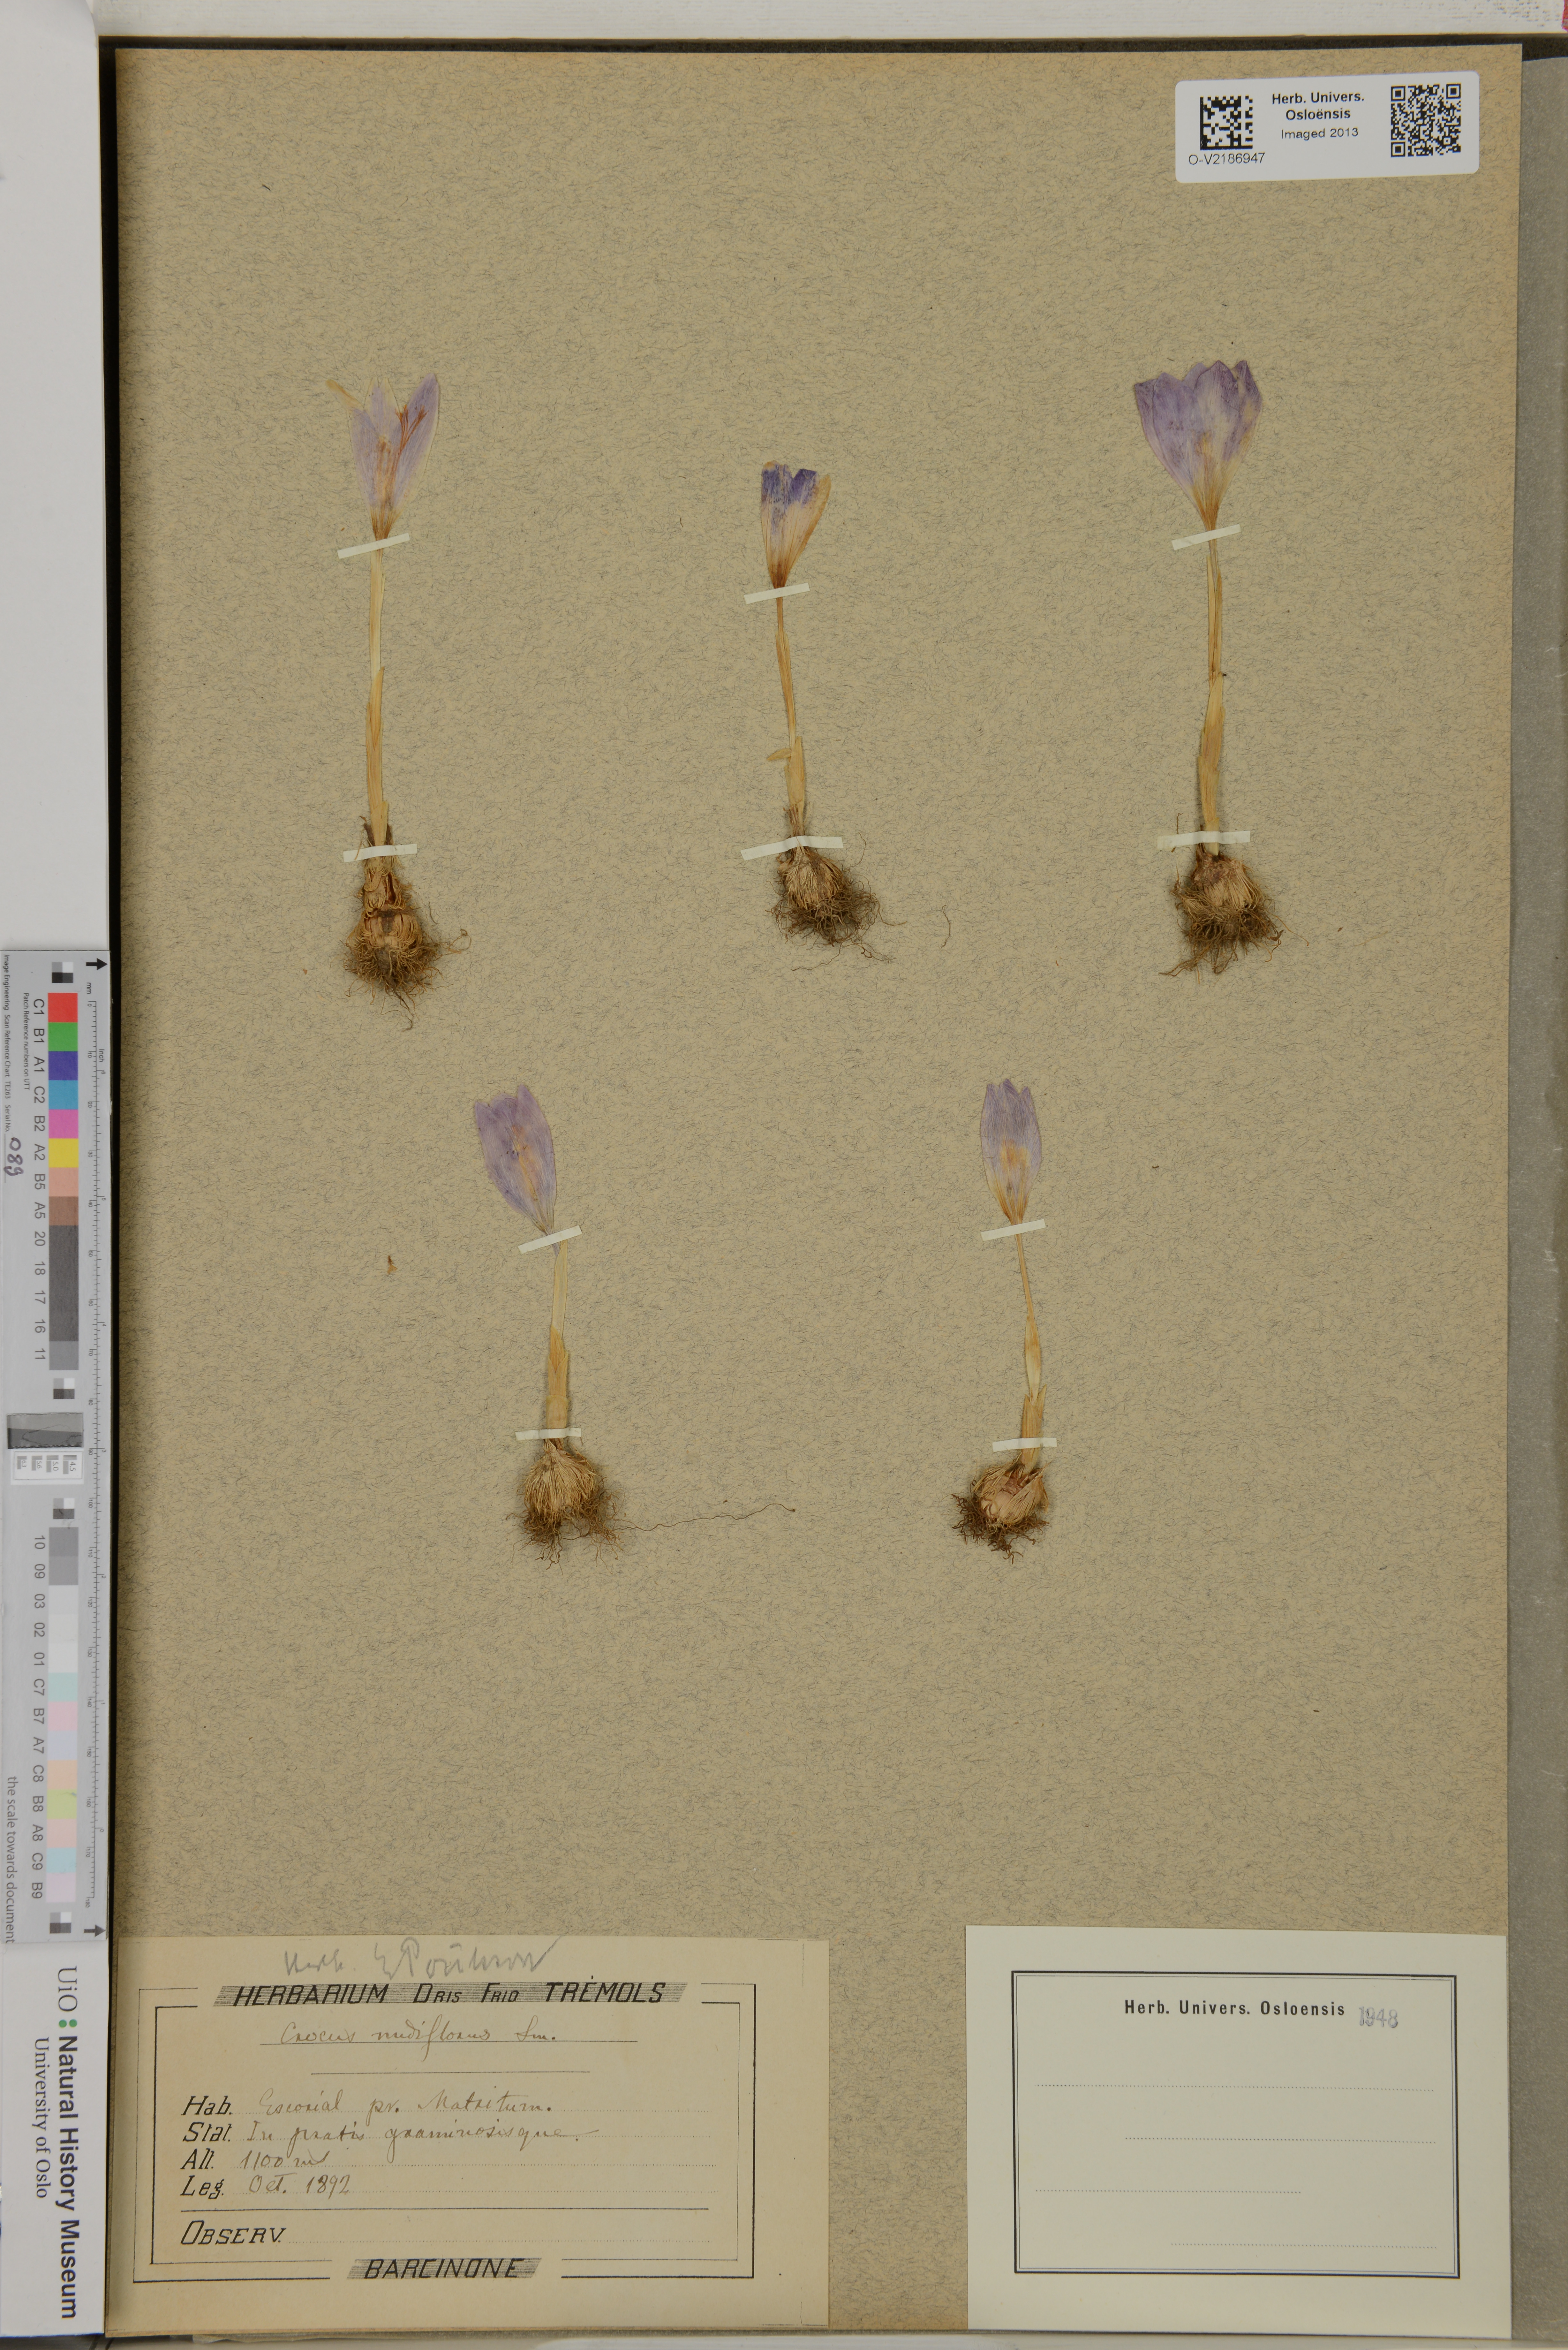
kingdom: Plantae
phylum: Tracheophyta
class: Liliopsida
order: Asparagales
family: Iridaceae
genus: Crocus
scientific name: Crocus nudiflorus
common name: Autumn crocus
